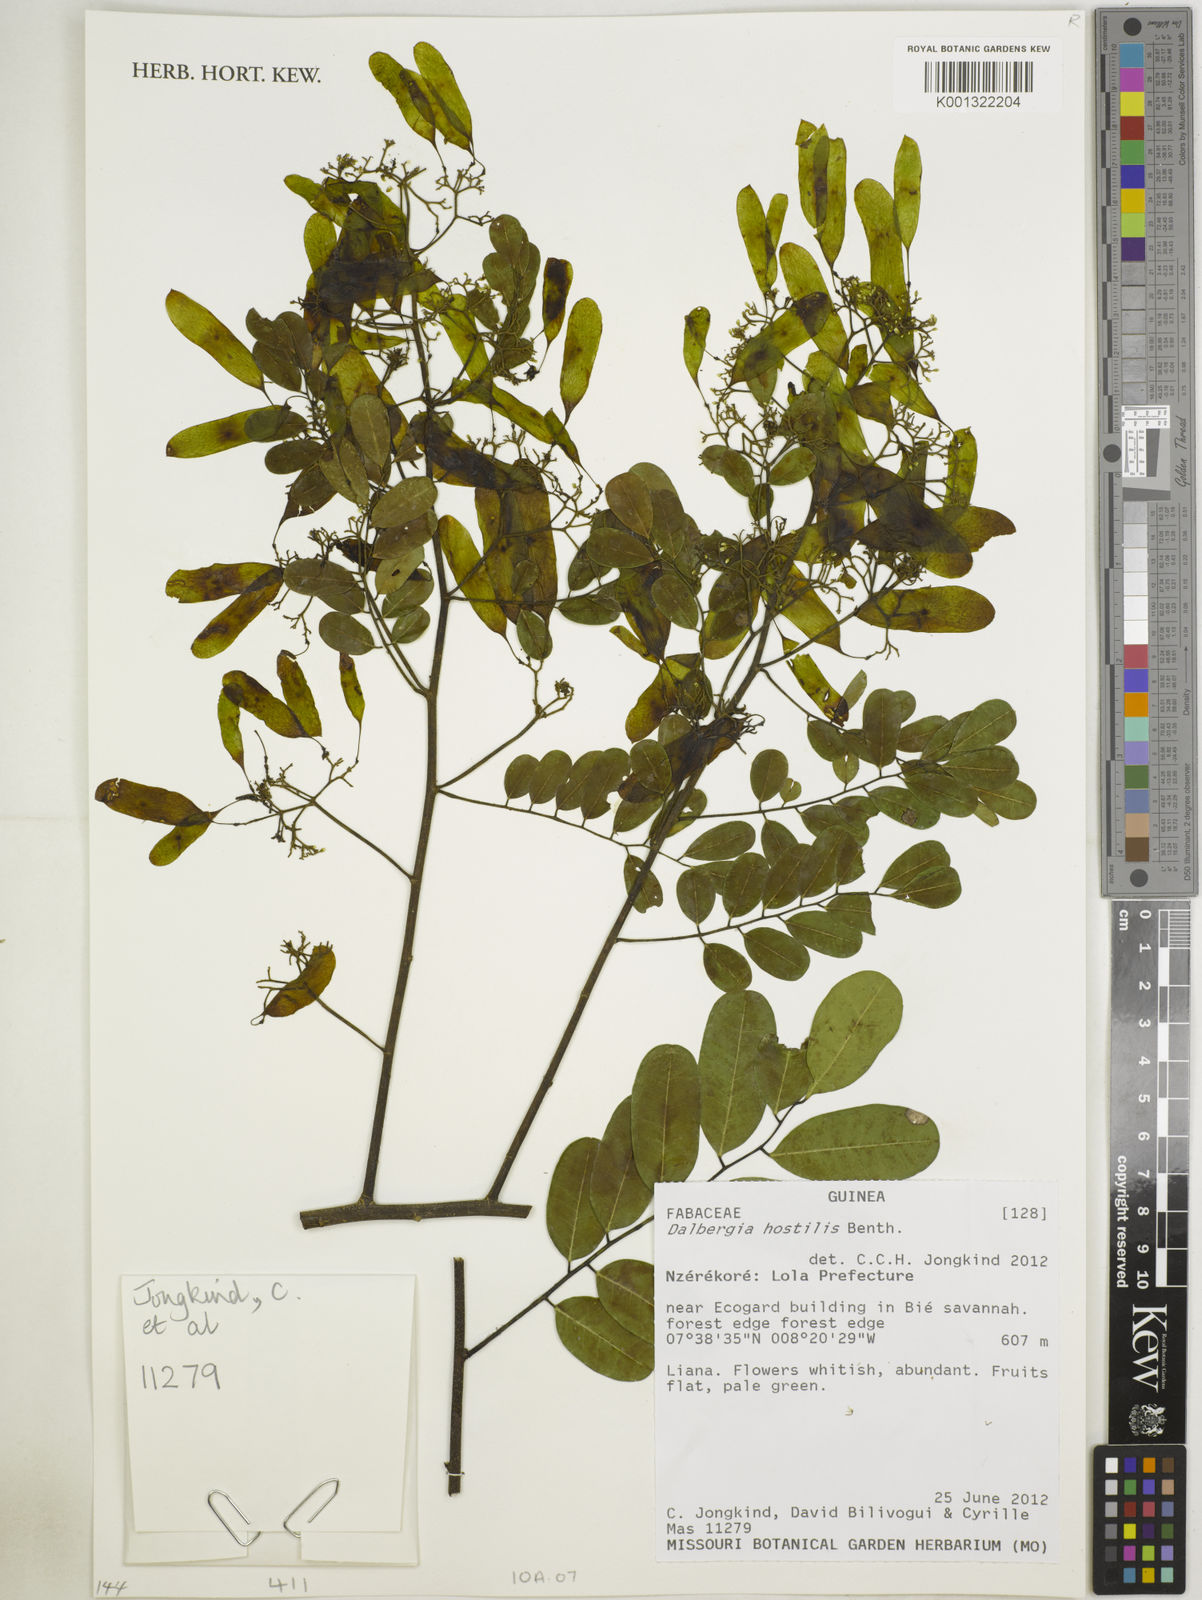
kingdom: Plantae
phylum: Tracheophyta
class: Magnoliopsida
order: Fabales
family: Fabaceae
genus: Dalbergia
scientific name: Dalbergia hostilis
